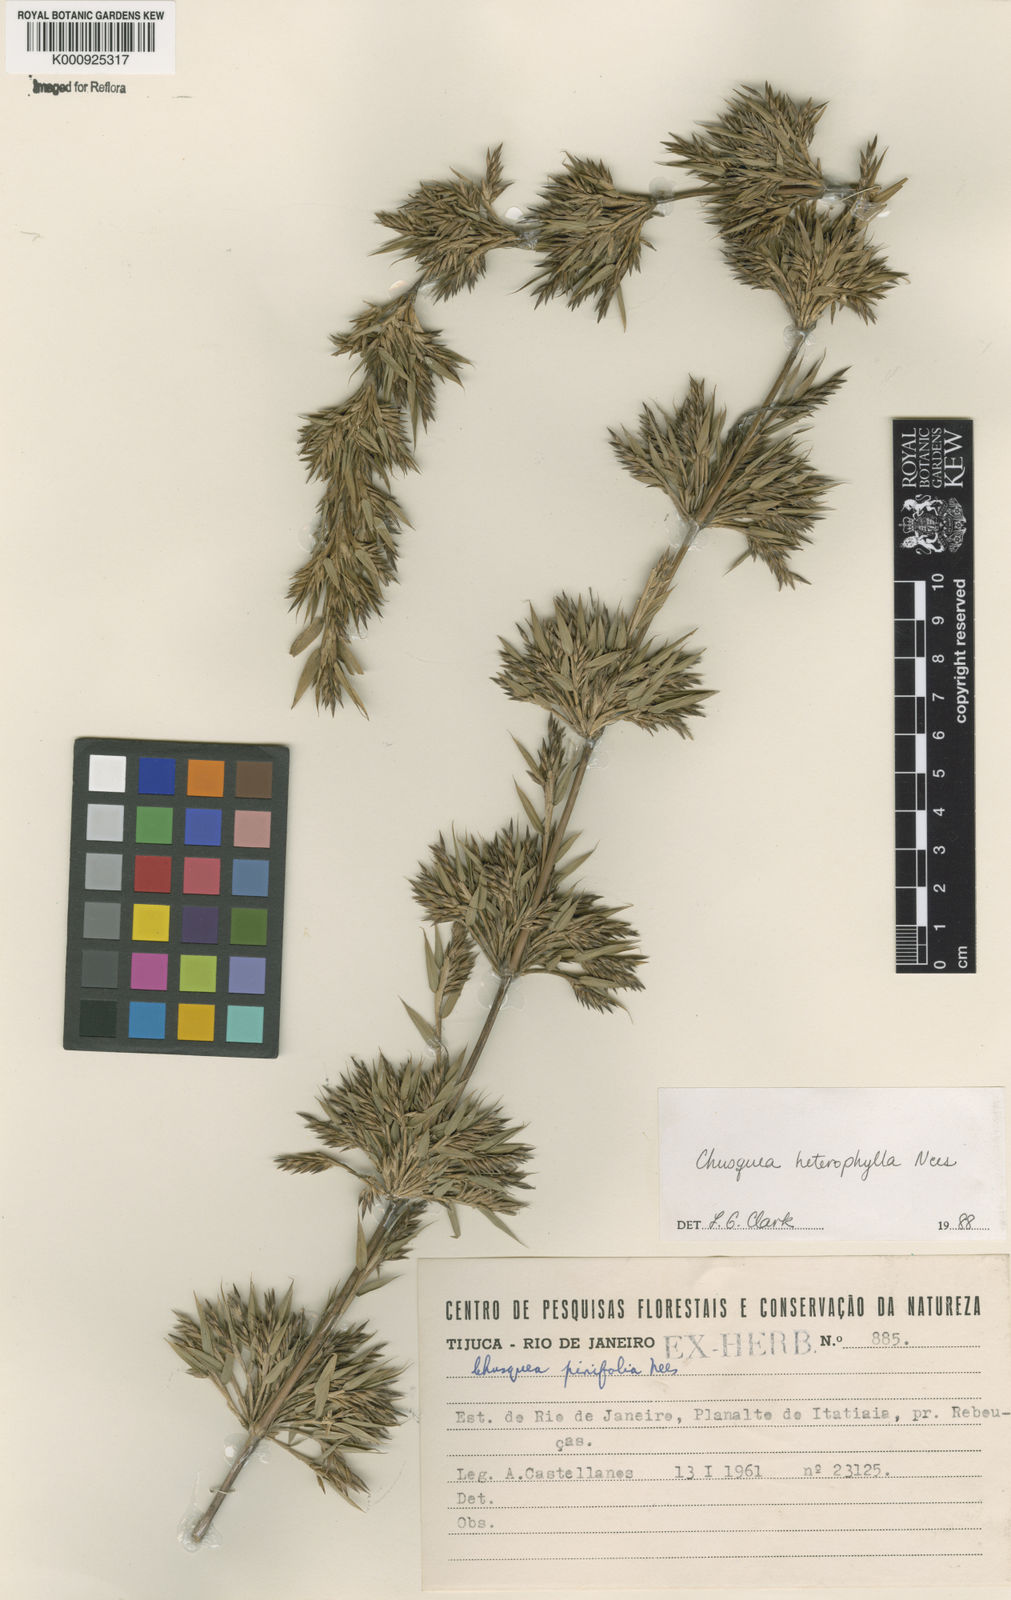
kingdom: Plantae
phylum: Tracheophyta
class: Liliopsida
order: Poales
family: Poaceae
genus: Chusquea
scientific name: Chusquea heterophylla
